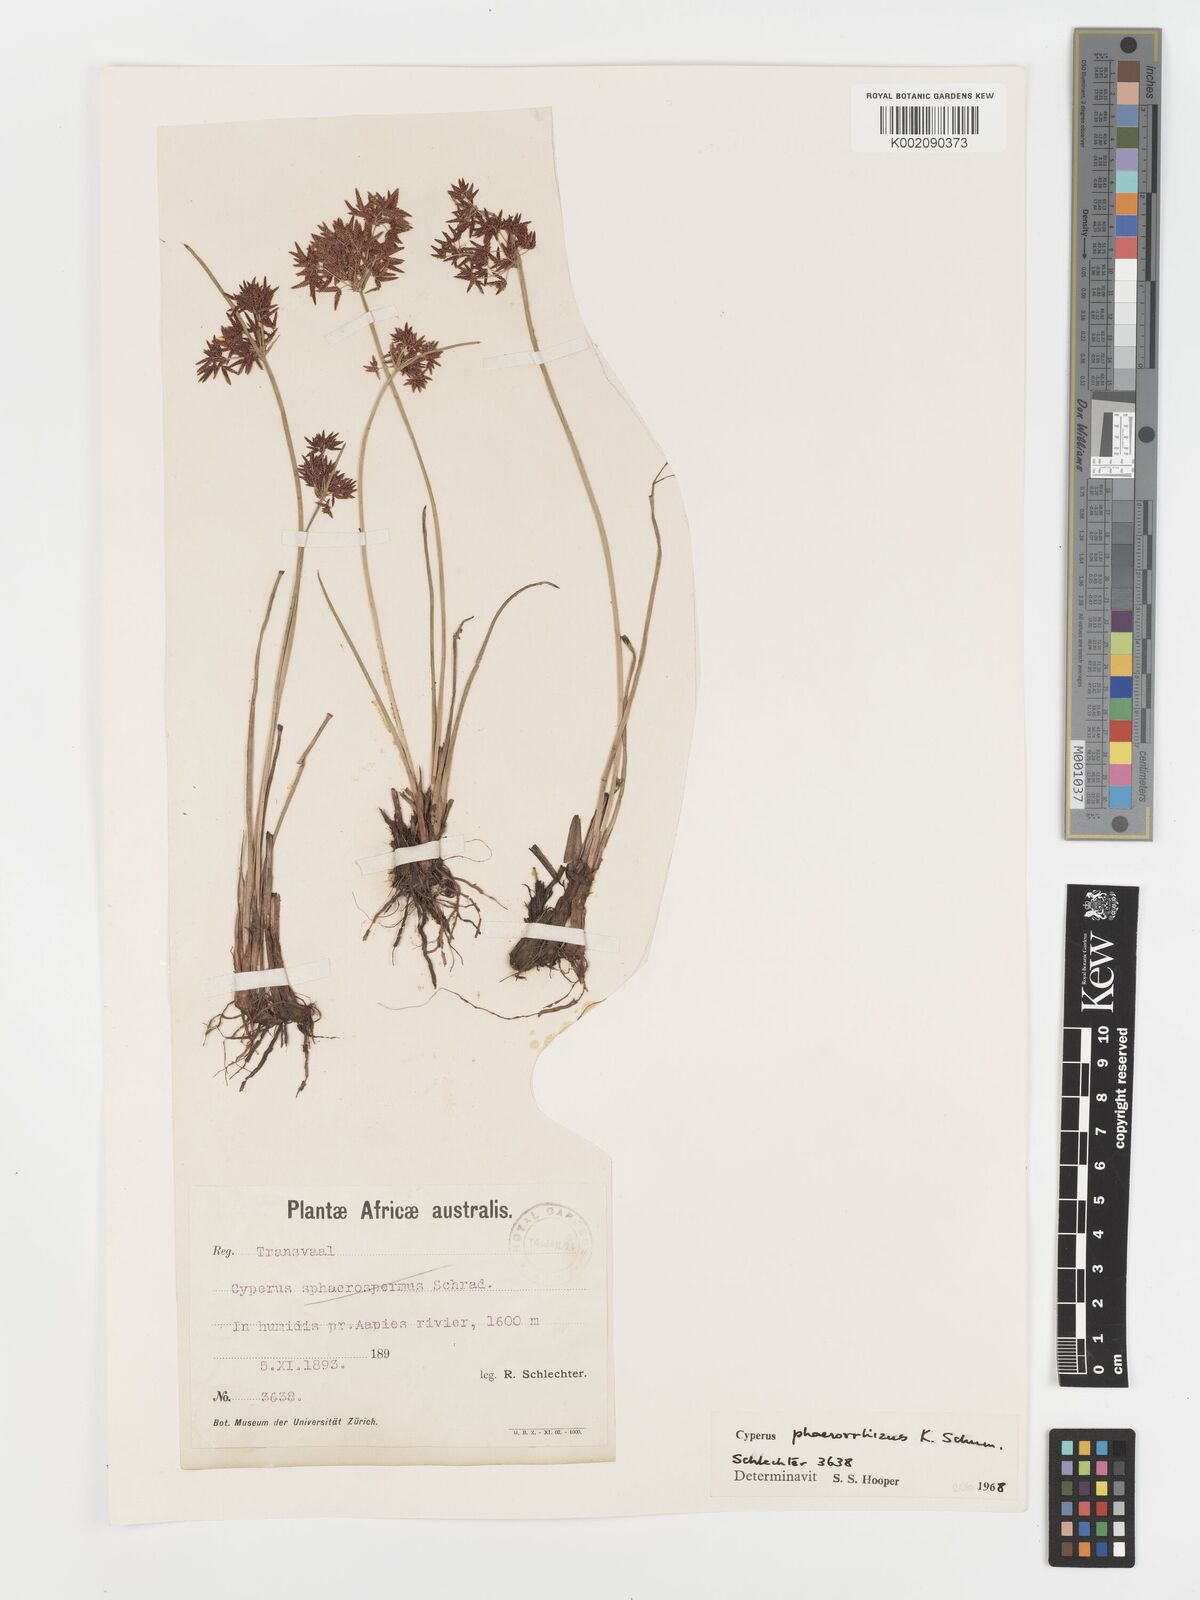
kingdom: Plantae
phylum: Tracheophyta
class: Liliopsida
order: Poales
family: Cyperaceae
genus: Cyperus
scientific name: Cyperus haspan
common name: Haspan flatsedge
